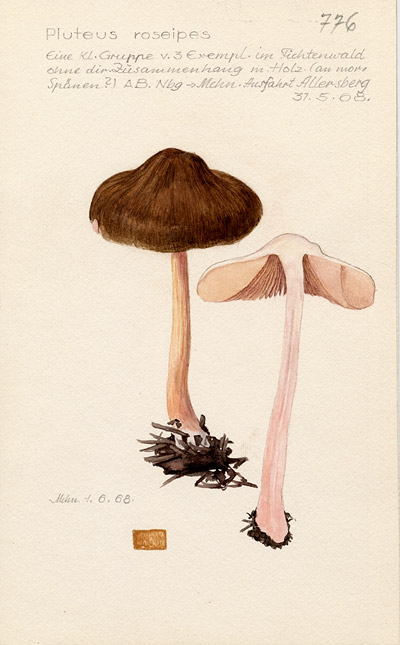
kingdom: Fungi
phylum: Basidiomycota
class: Agaricomycetes
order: Agaricales
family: Pluteaceae
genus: Pluteus
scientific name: Pluteus roseipes
